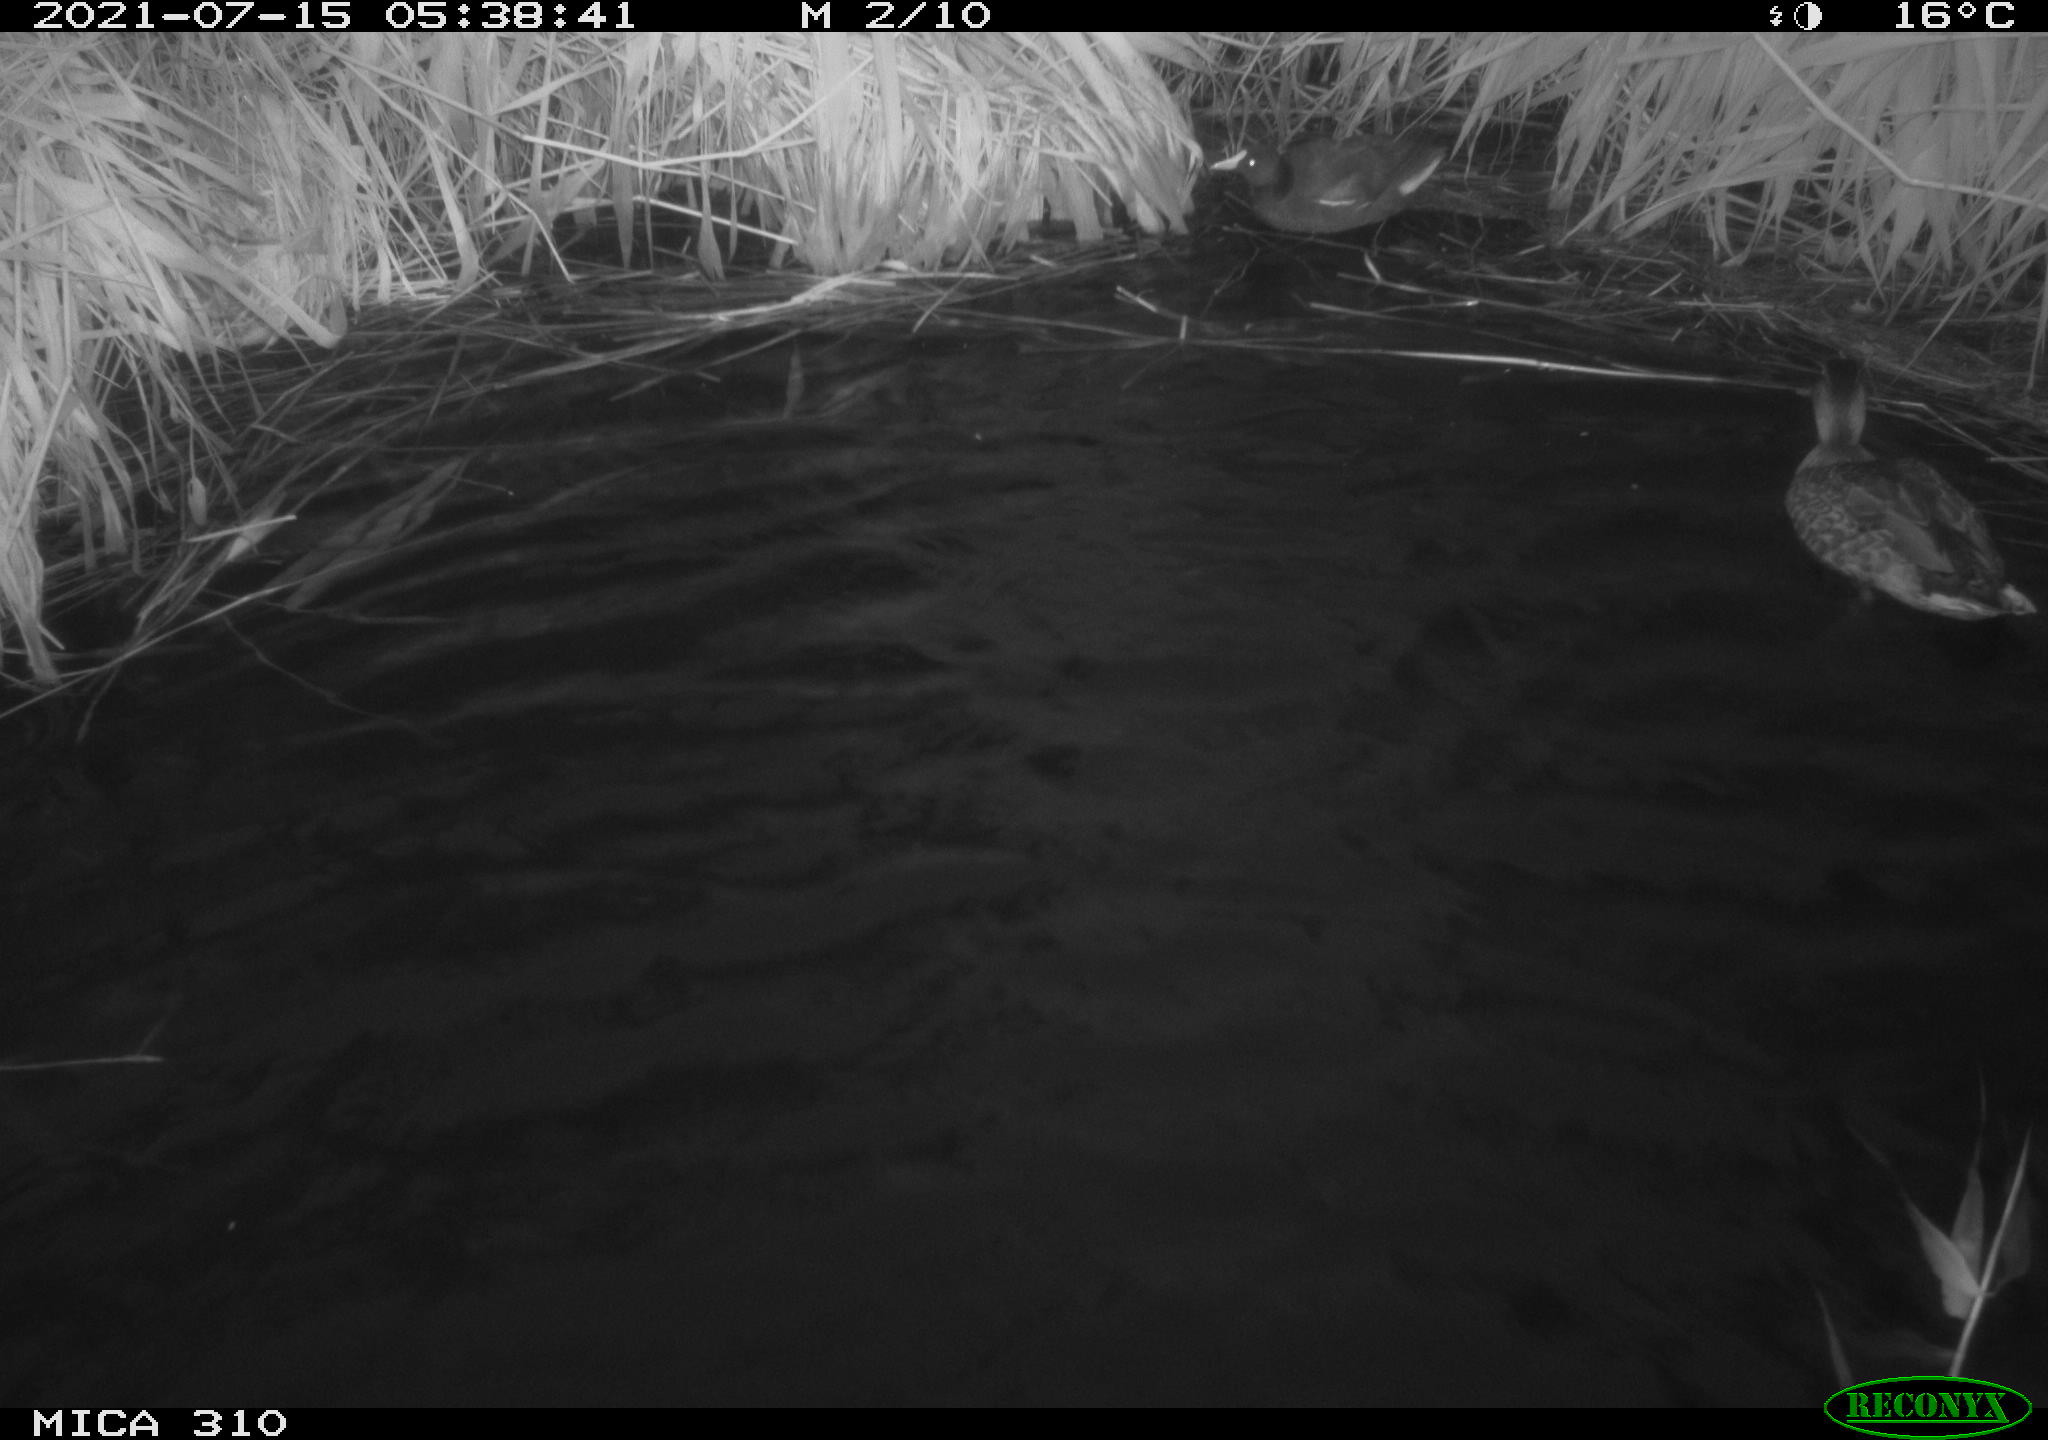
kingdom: Animalia
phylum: Chordata
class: Aves
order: Gruiformes
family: Rallidae
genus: Gallinula
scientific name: Gallinula chloropus
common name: Common moorhen
